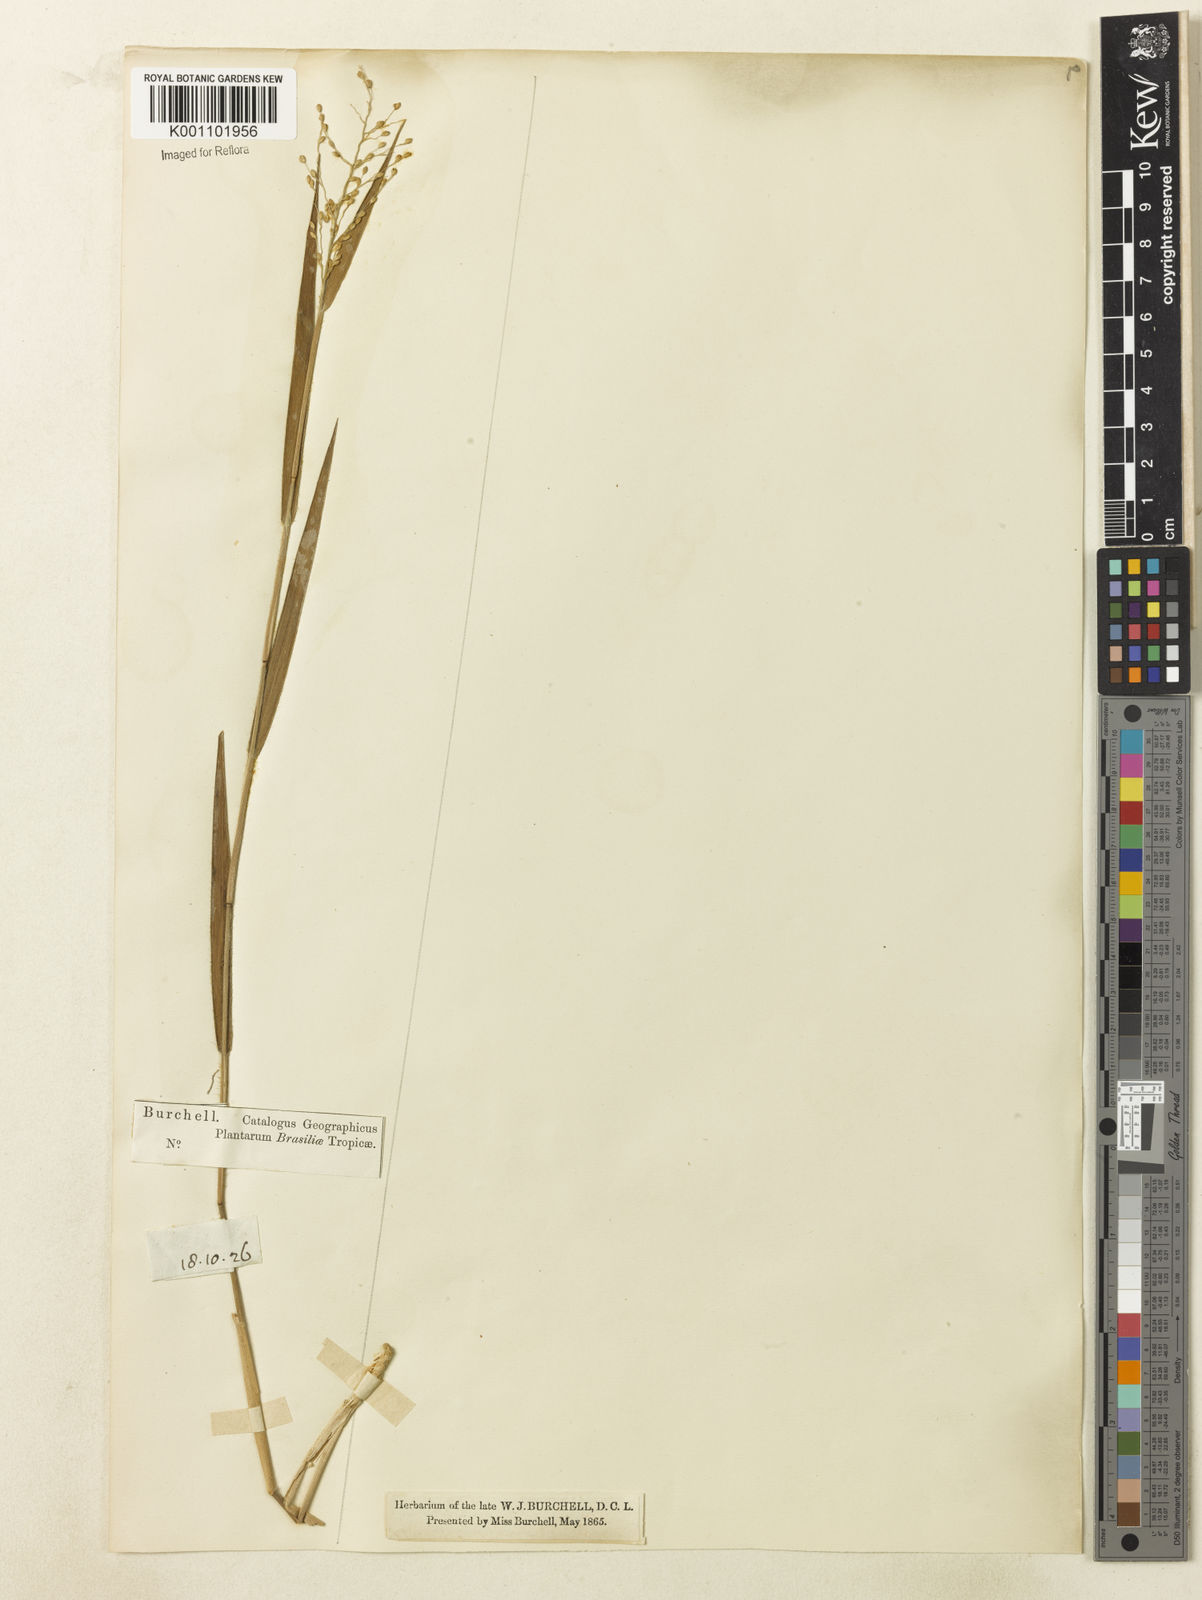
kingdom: Plantae
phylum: Tracheophyta
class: Liliopsida
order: Poales
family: Poaceae
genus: Dichanthelium
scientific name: Dichanthelium sabulorum
